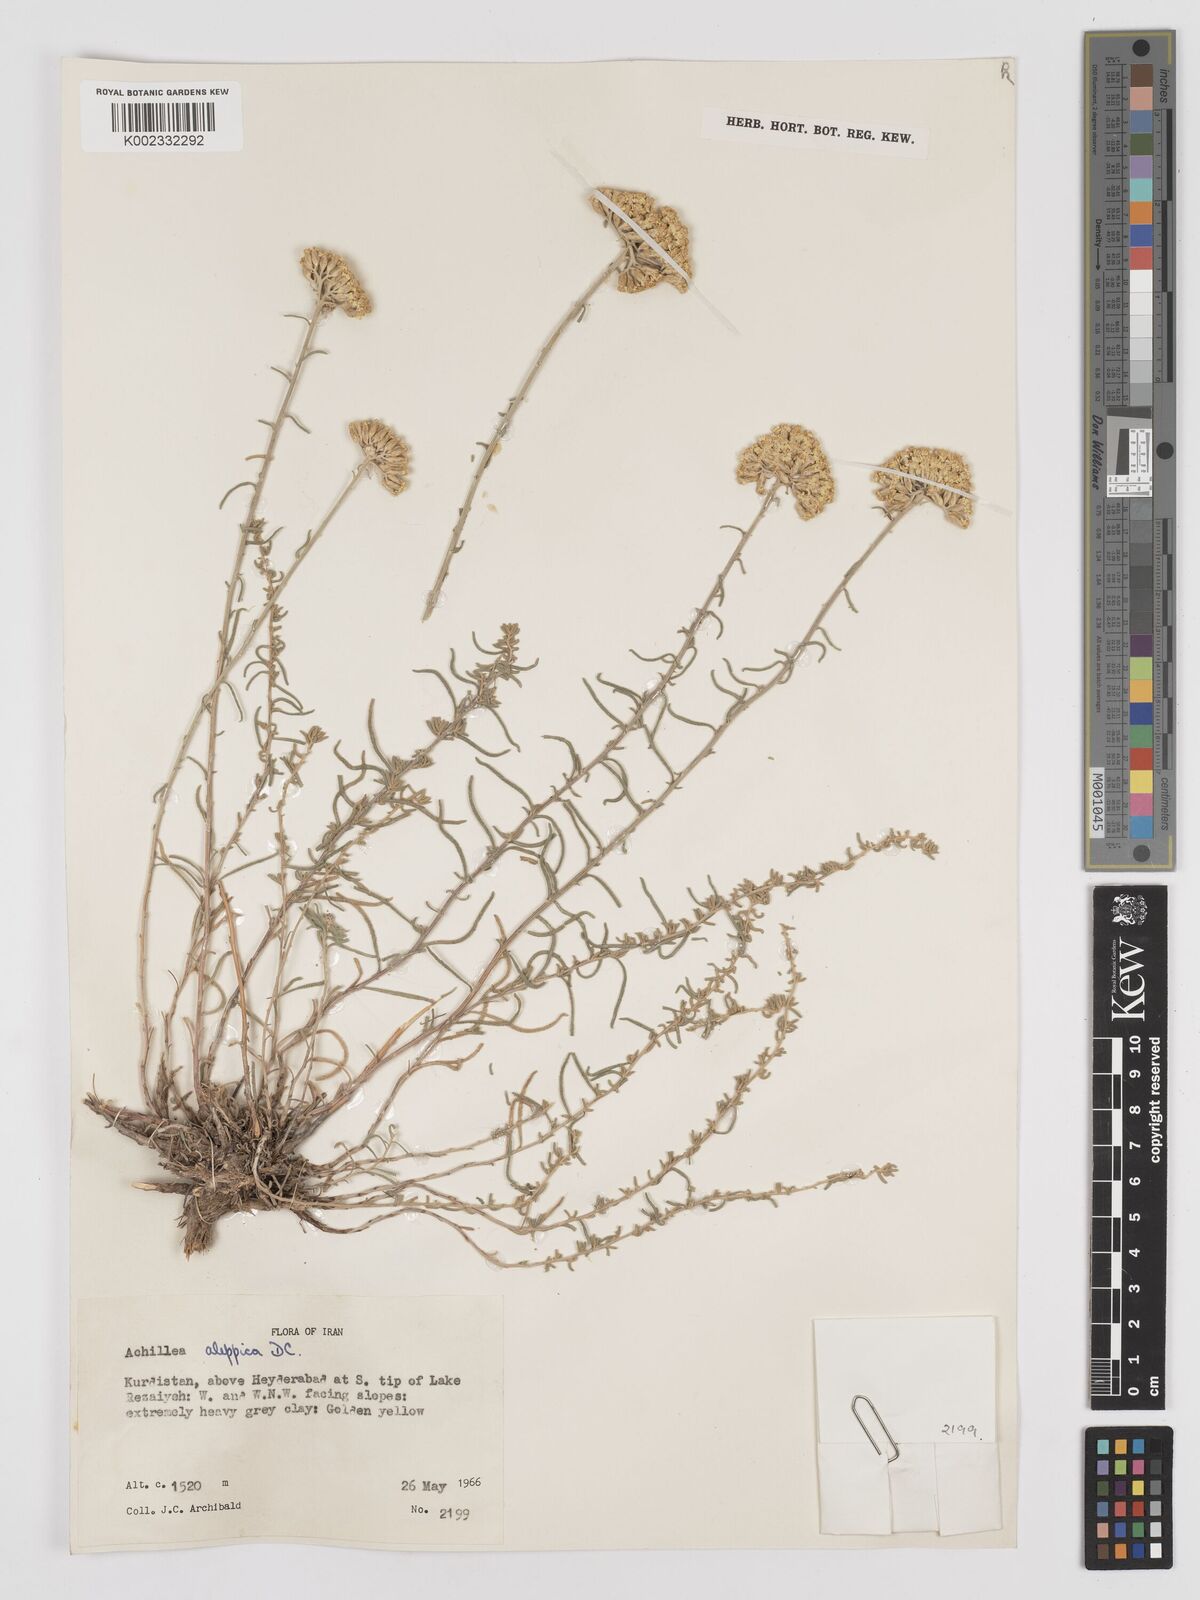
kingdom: Plantae
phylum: Tracheophyta
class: Magnoliopsida
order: Asterales
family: Asteraceae
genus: Achillea
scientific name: Achillea aleppica
